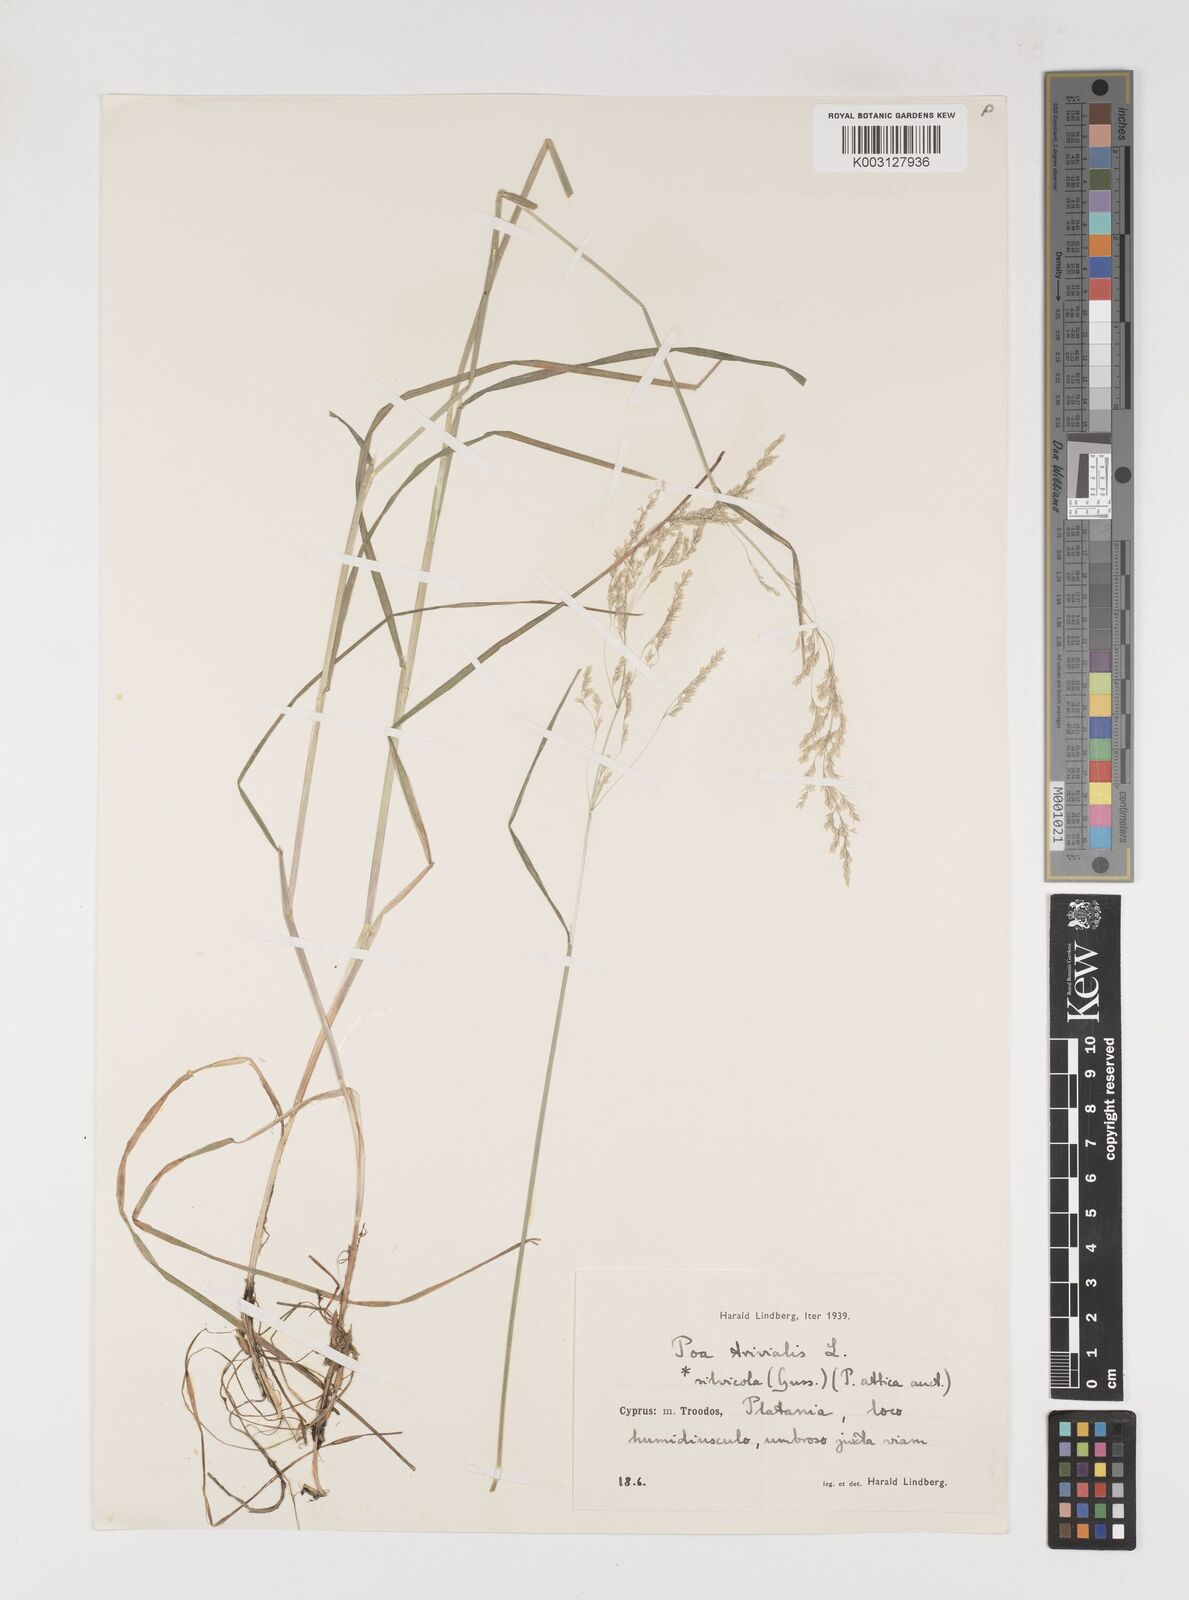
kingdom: Plantae
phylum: Tracheophyta
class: Liliopsida
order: Poales
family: Poaceae
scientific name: Poaceae
